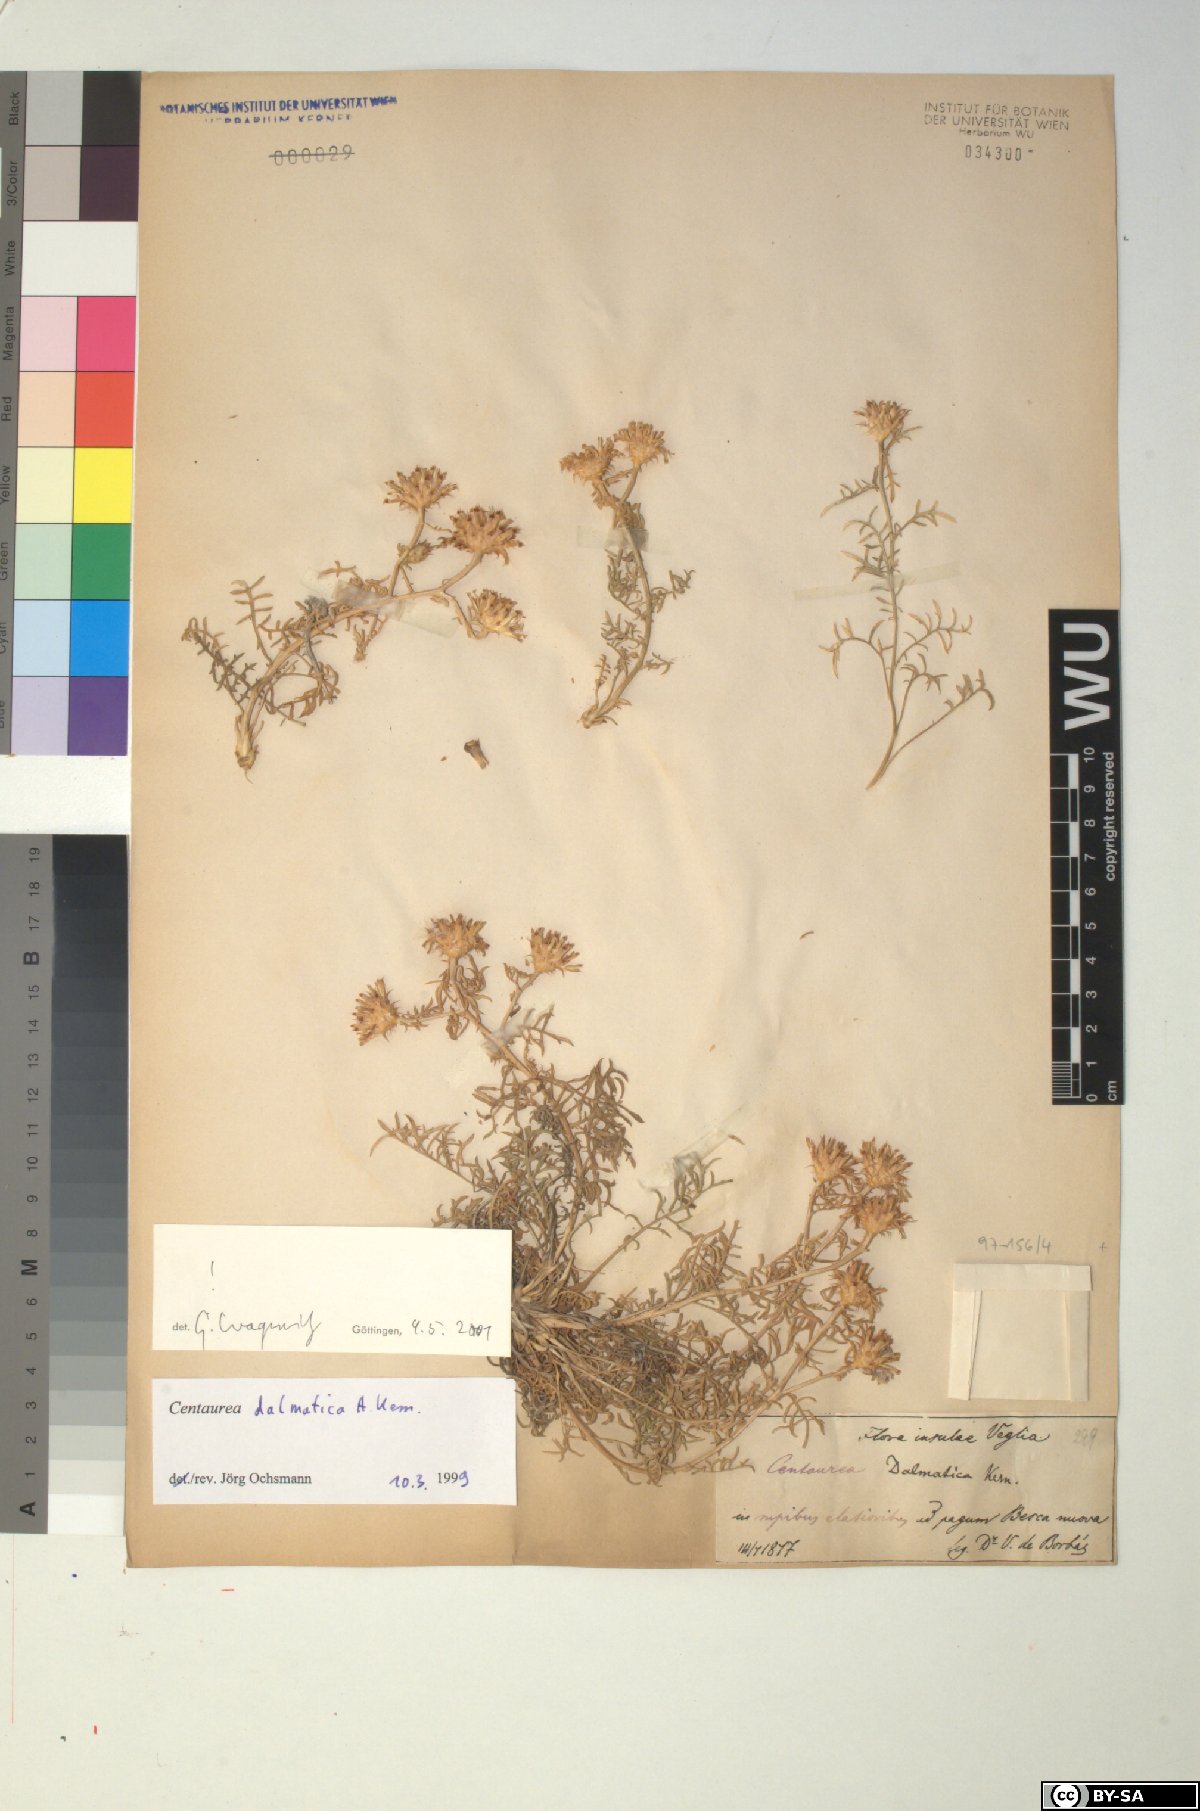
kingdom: Plantae
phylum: Tracheophyta
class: Magnoliopsida
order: Asterales
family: Asteraceae
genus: Centaurea
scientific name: Centaurea dalmatica
